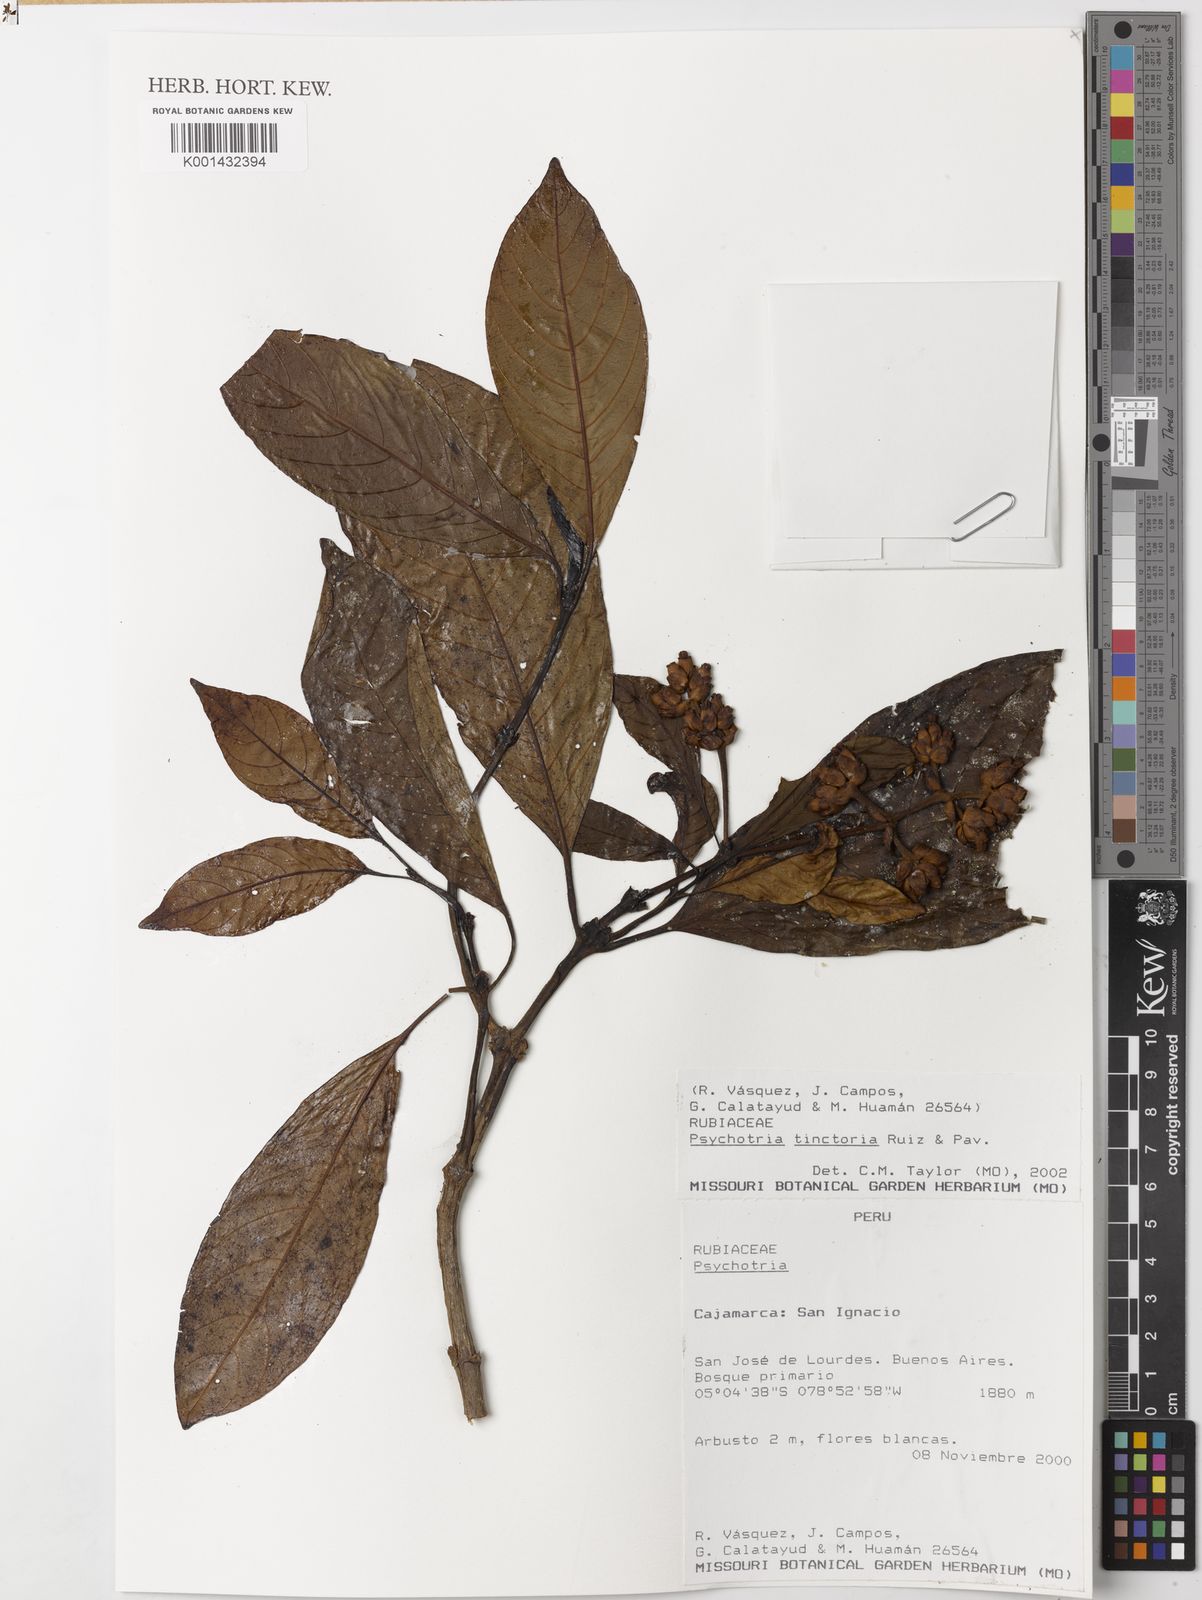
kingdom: Plantae
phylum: Tracheophyta
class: Magnoliopsida
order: Gentianales
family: Rubiaceae
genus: Palicourea
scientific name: Palicourea tinctoria
